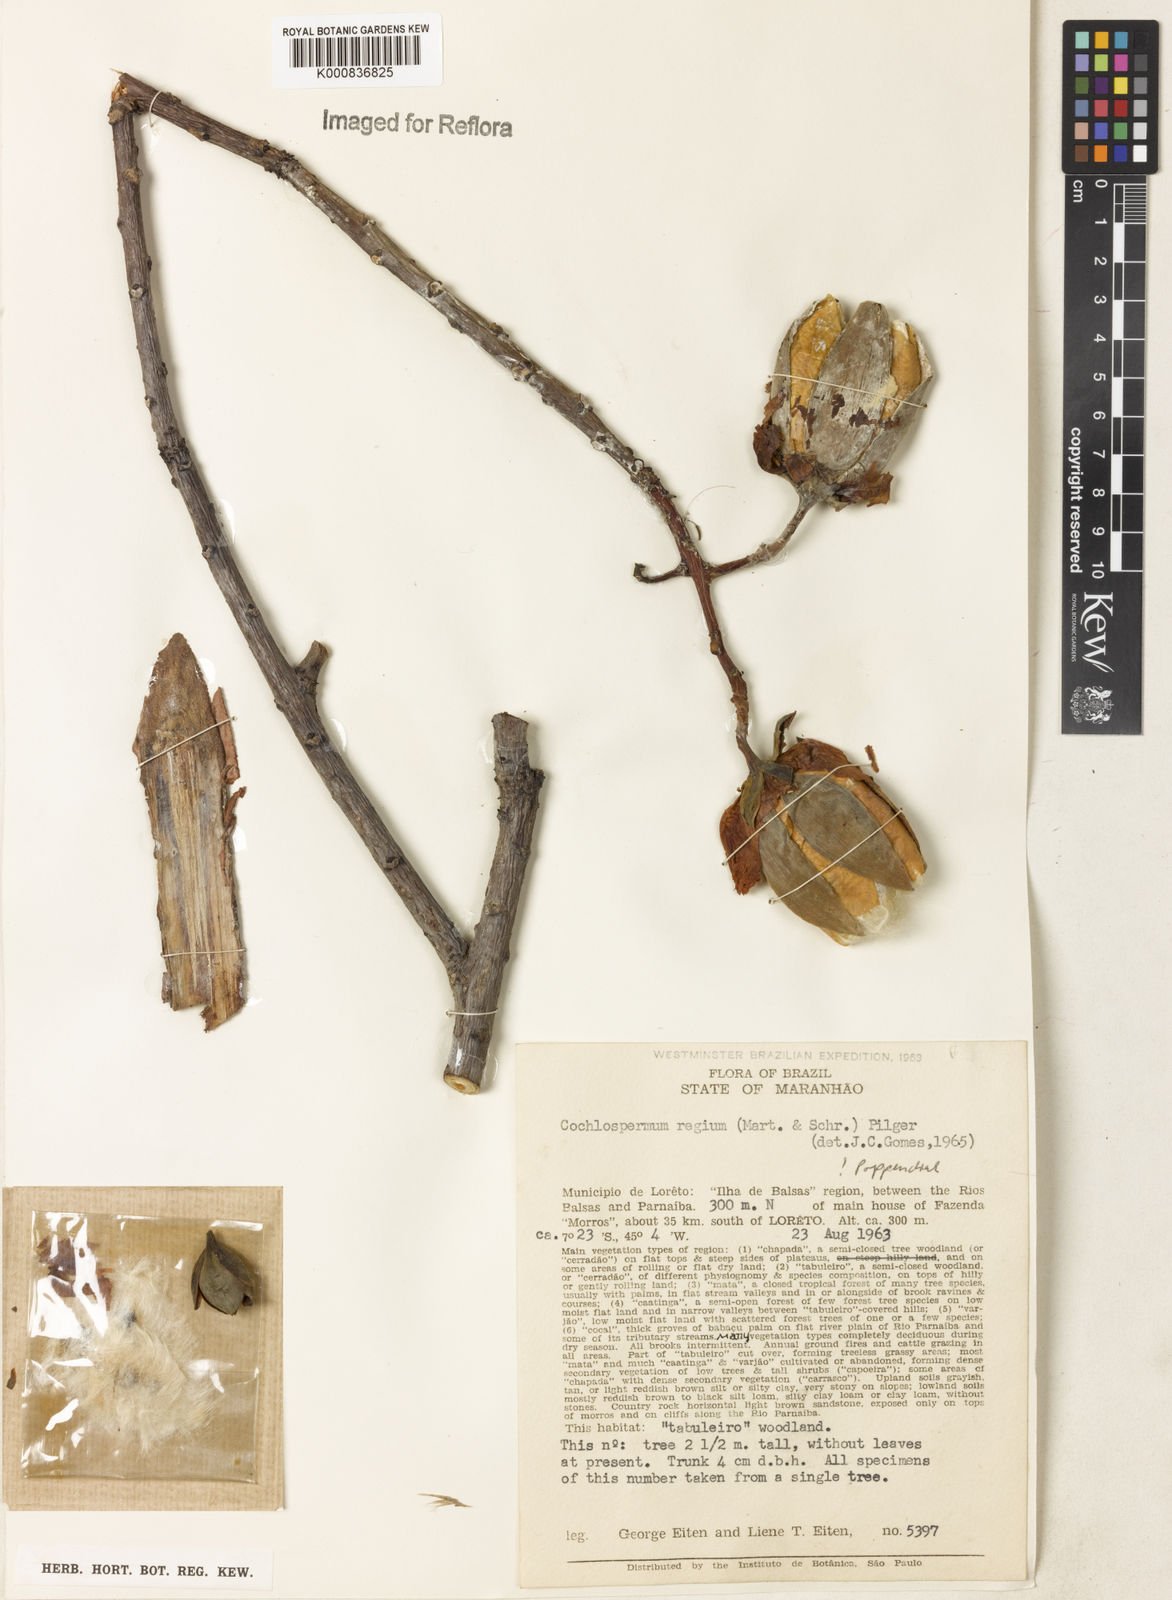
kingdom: Plantae
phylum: Tracheophyta
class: Magnoliopsida
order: Malvales
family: Cochlospermaceae
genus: Cochlospermum
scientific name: Cochlospermum regium
